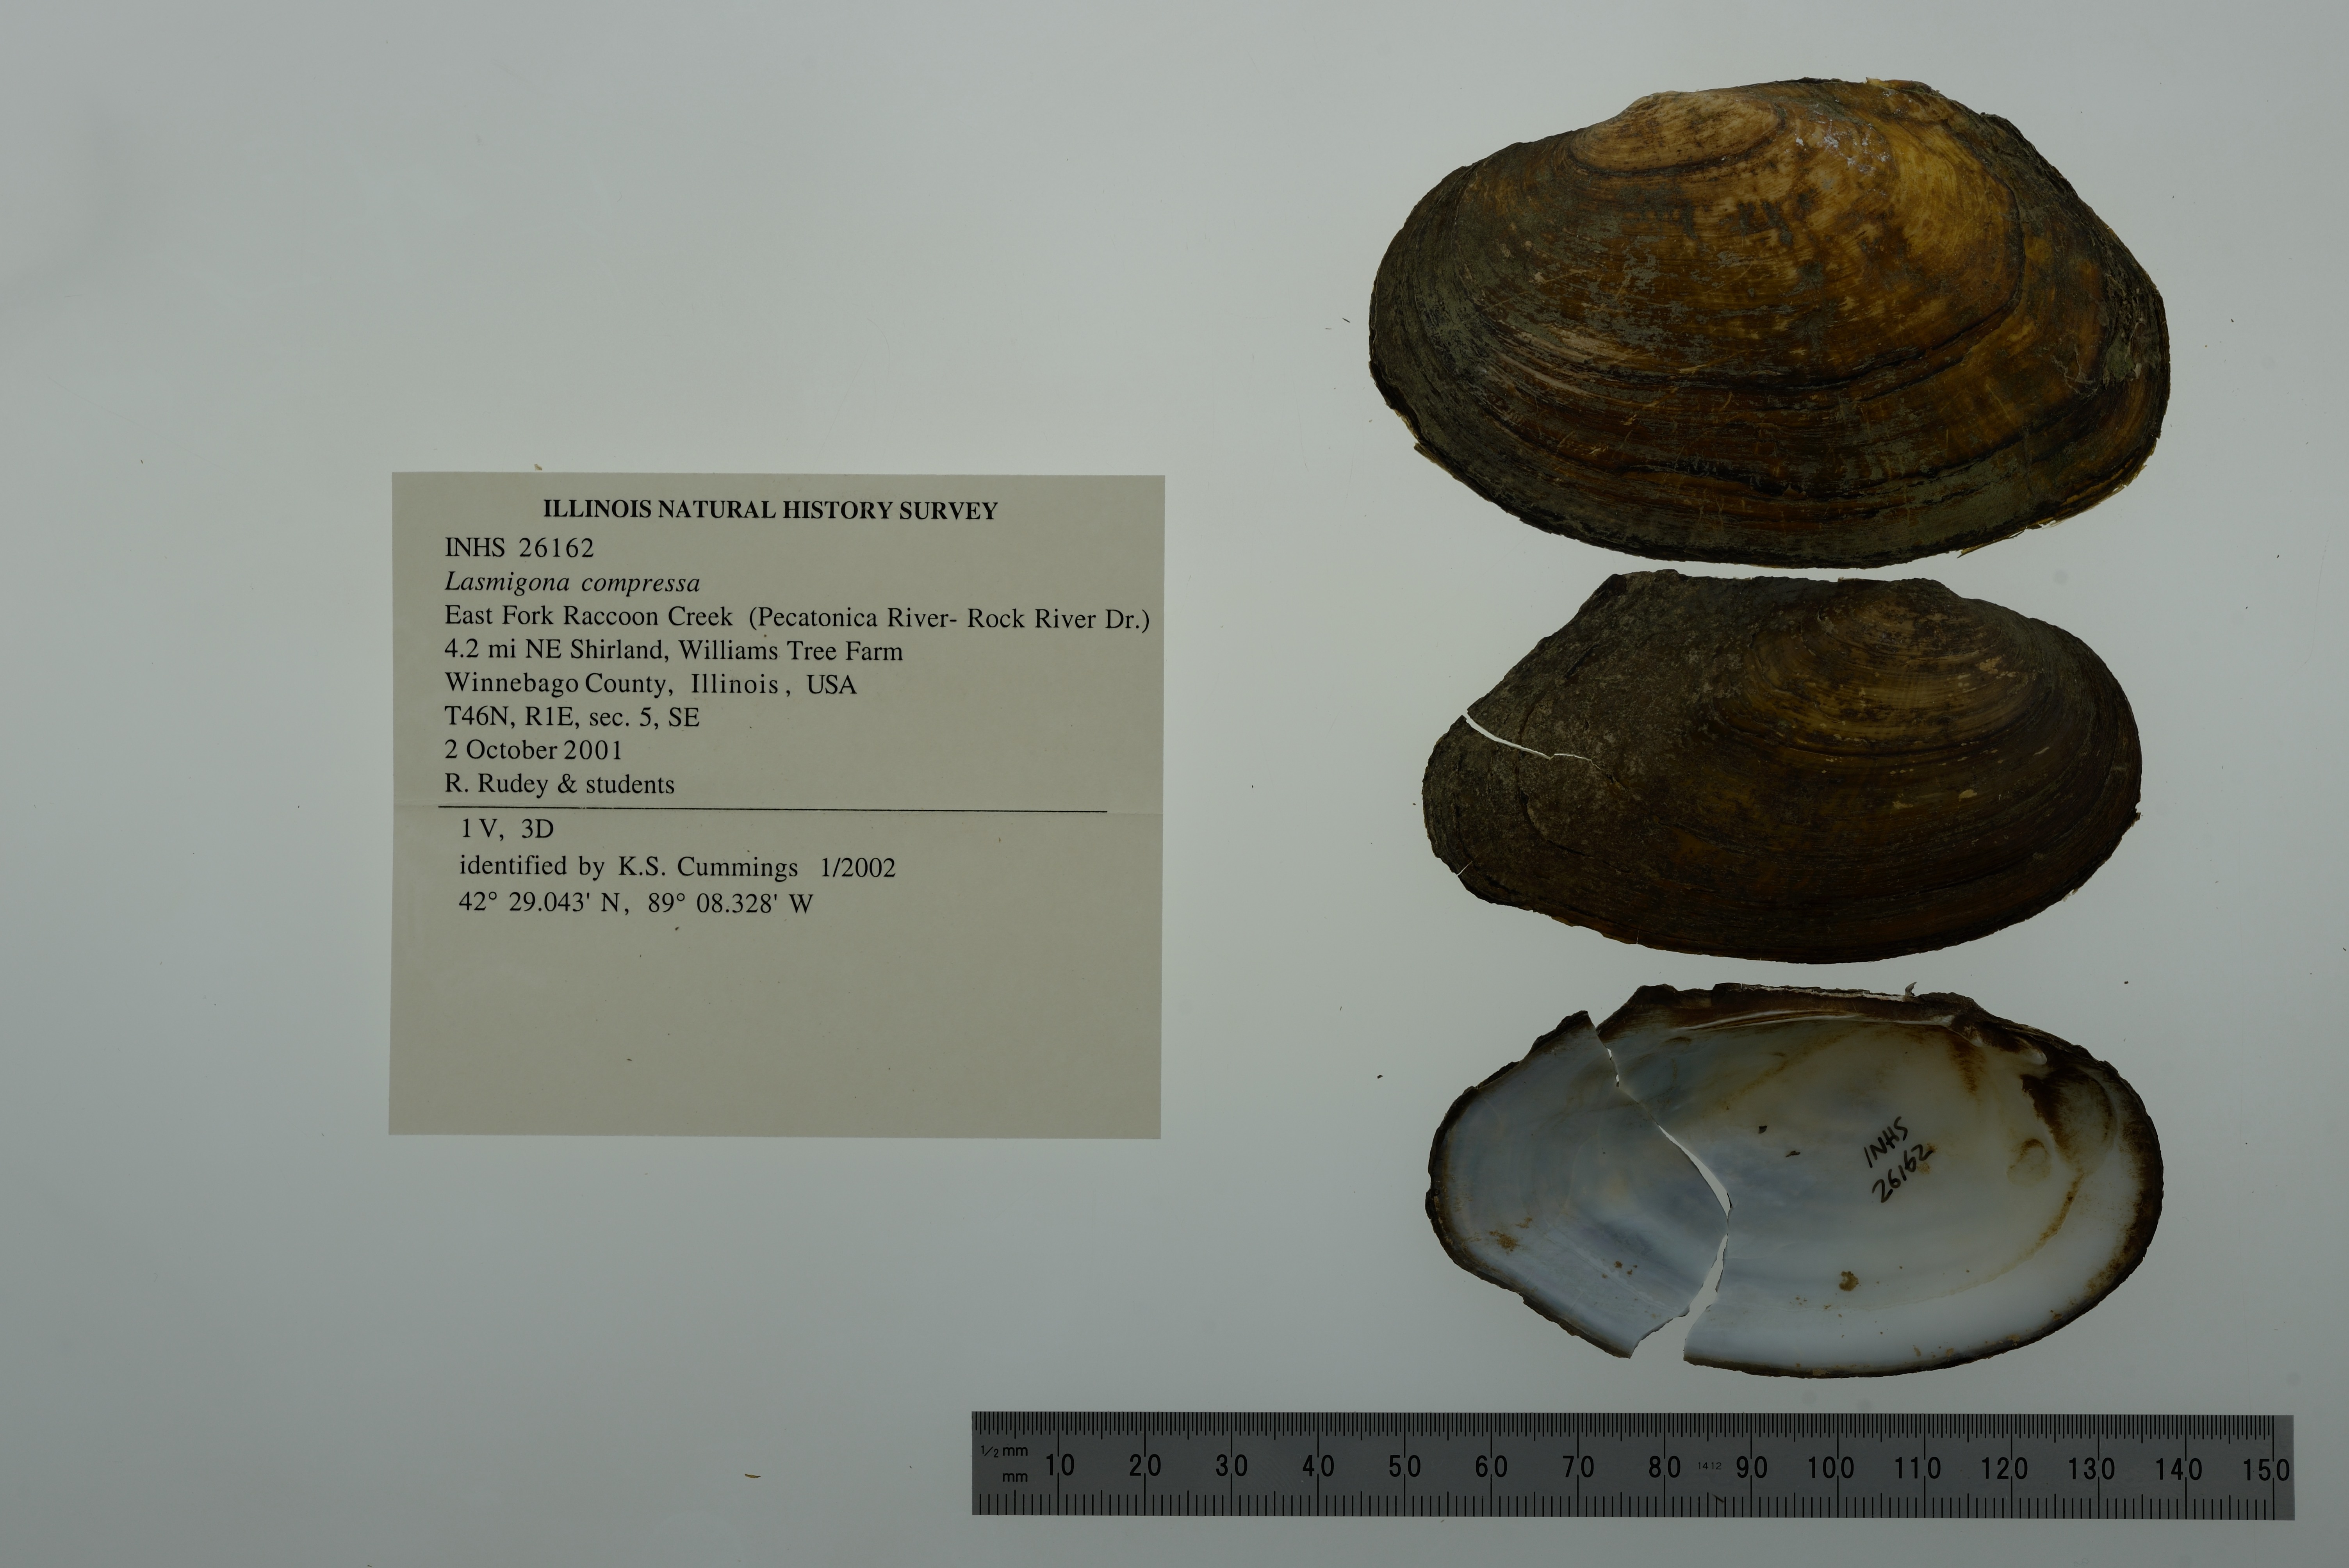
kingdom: Animalia
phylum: Mollusca
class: Bivalvia
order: Unionida
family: Unionidae
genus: Lasmigona
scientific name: Lasmigona compressa
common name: Creek heelsplitter
